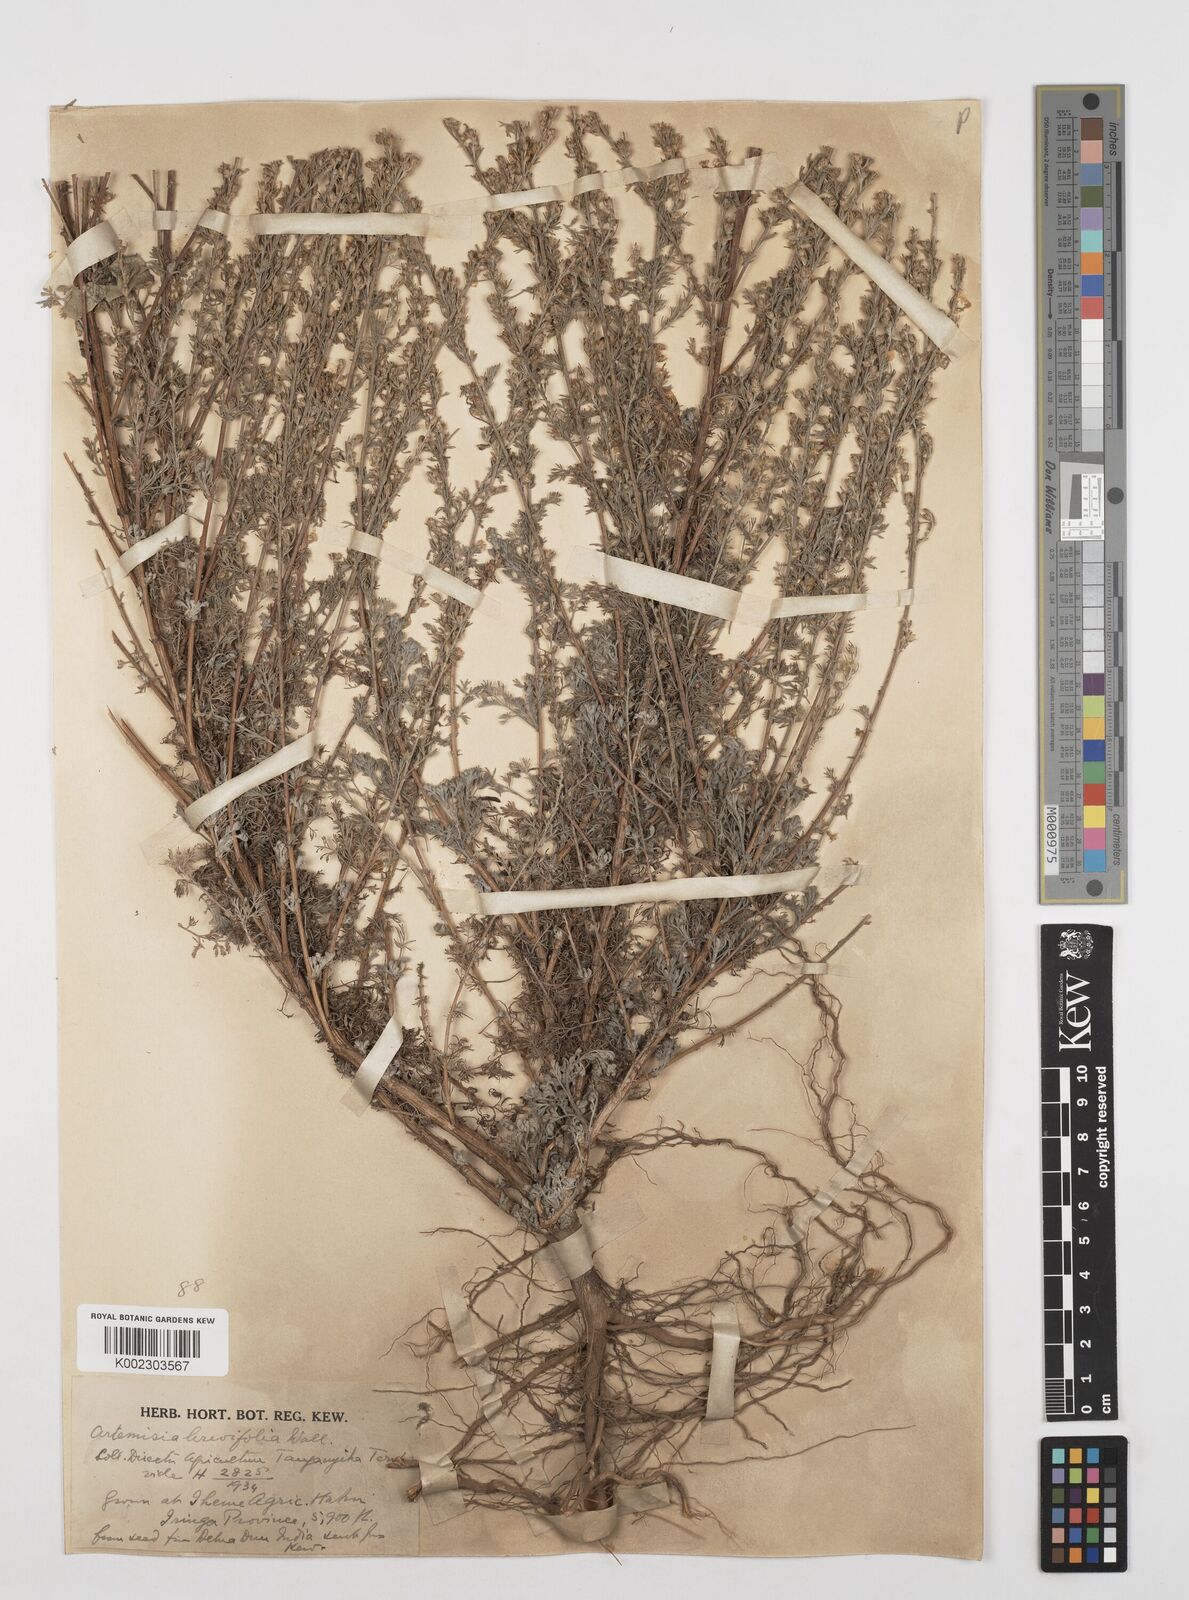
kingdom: Plantae
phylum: Tracheophyta
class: Magnoliopsida
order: Asterales
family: Asteraceae
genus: Artemisia
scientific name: Artemisia brevifolia
